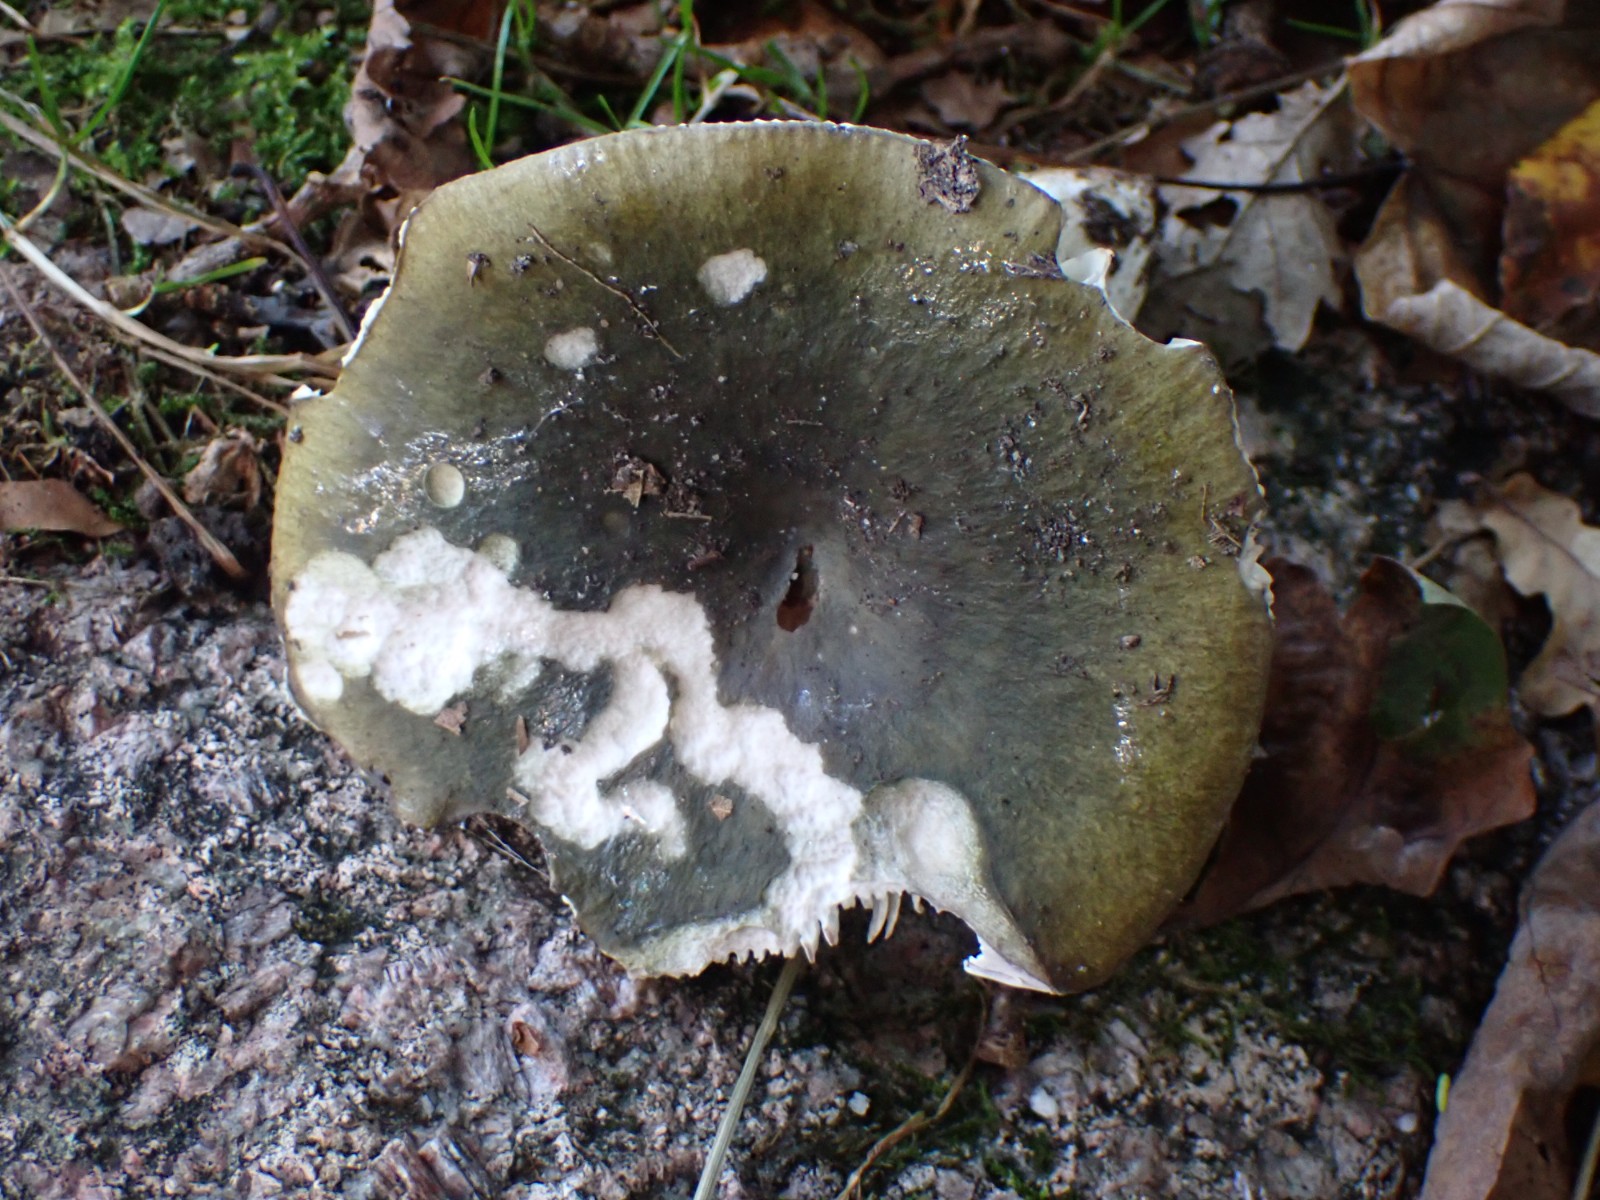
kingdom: Fungi
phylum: Basidiomycota
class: Agaricomycetes
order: Russulales
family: Russulaceae
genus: Russula
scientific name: Russula heterophylla
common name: gaffelbladet skørhat
